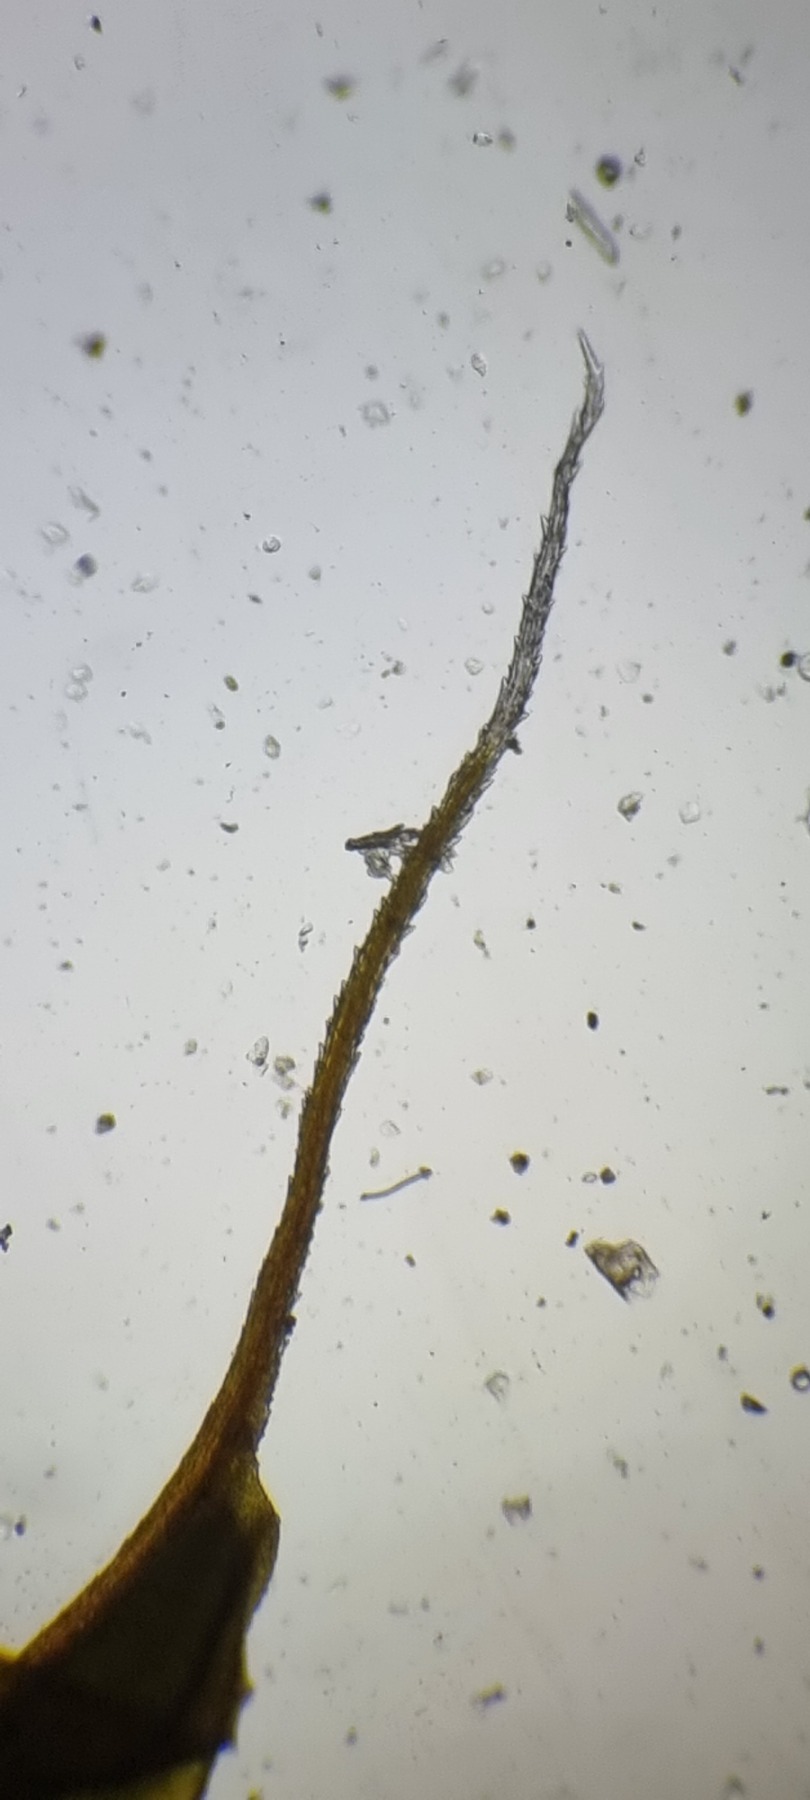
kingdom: Plantae
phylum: Bryophyta
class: Bryopsida
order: Pottiales
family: Pottiaceae
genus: Syntrichia
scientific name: Syntrichia ruralis
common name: Spidsbladet hårstjerne
